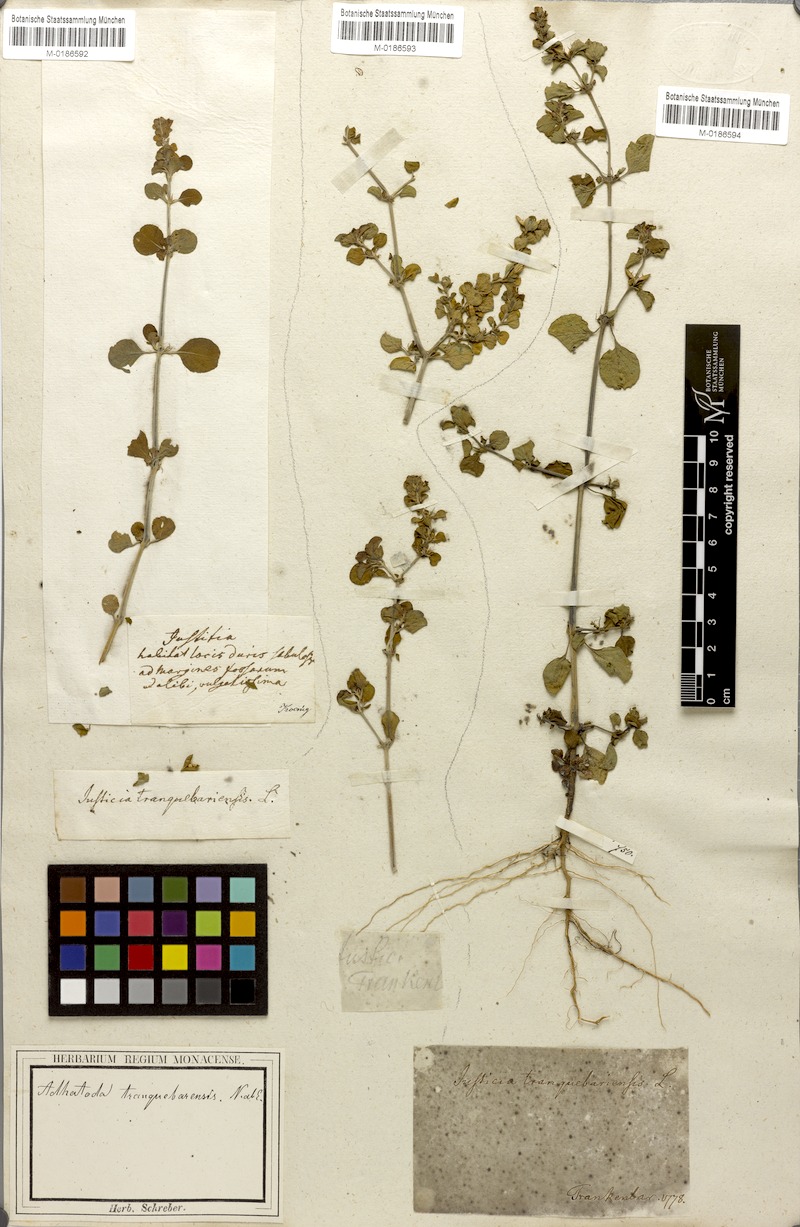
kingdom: Plantae
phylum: Tracheophyta
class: Magnoliopsida
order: Lamiales
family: Acanthaceae
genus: Justicia
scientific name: Justicia tranquebariensis
